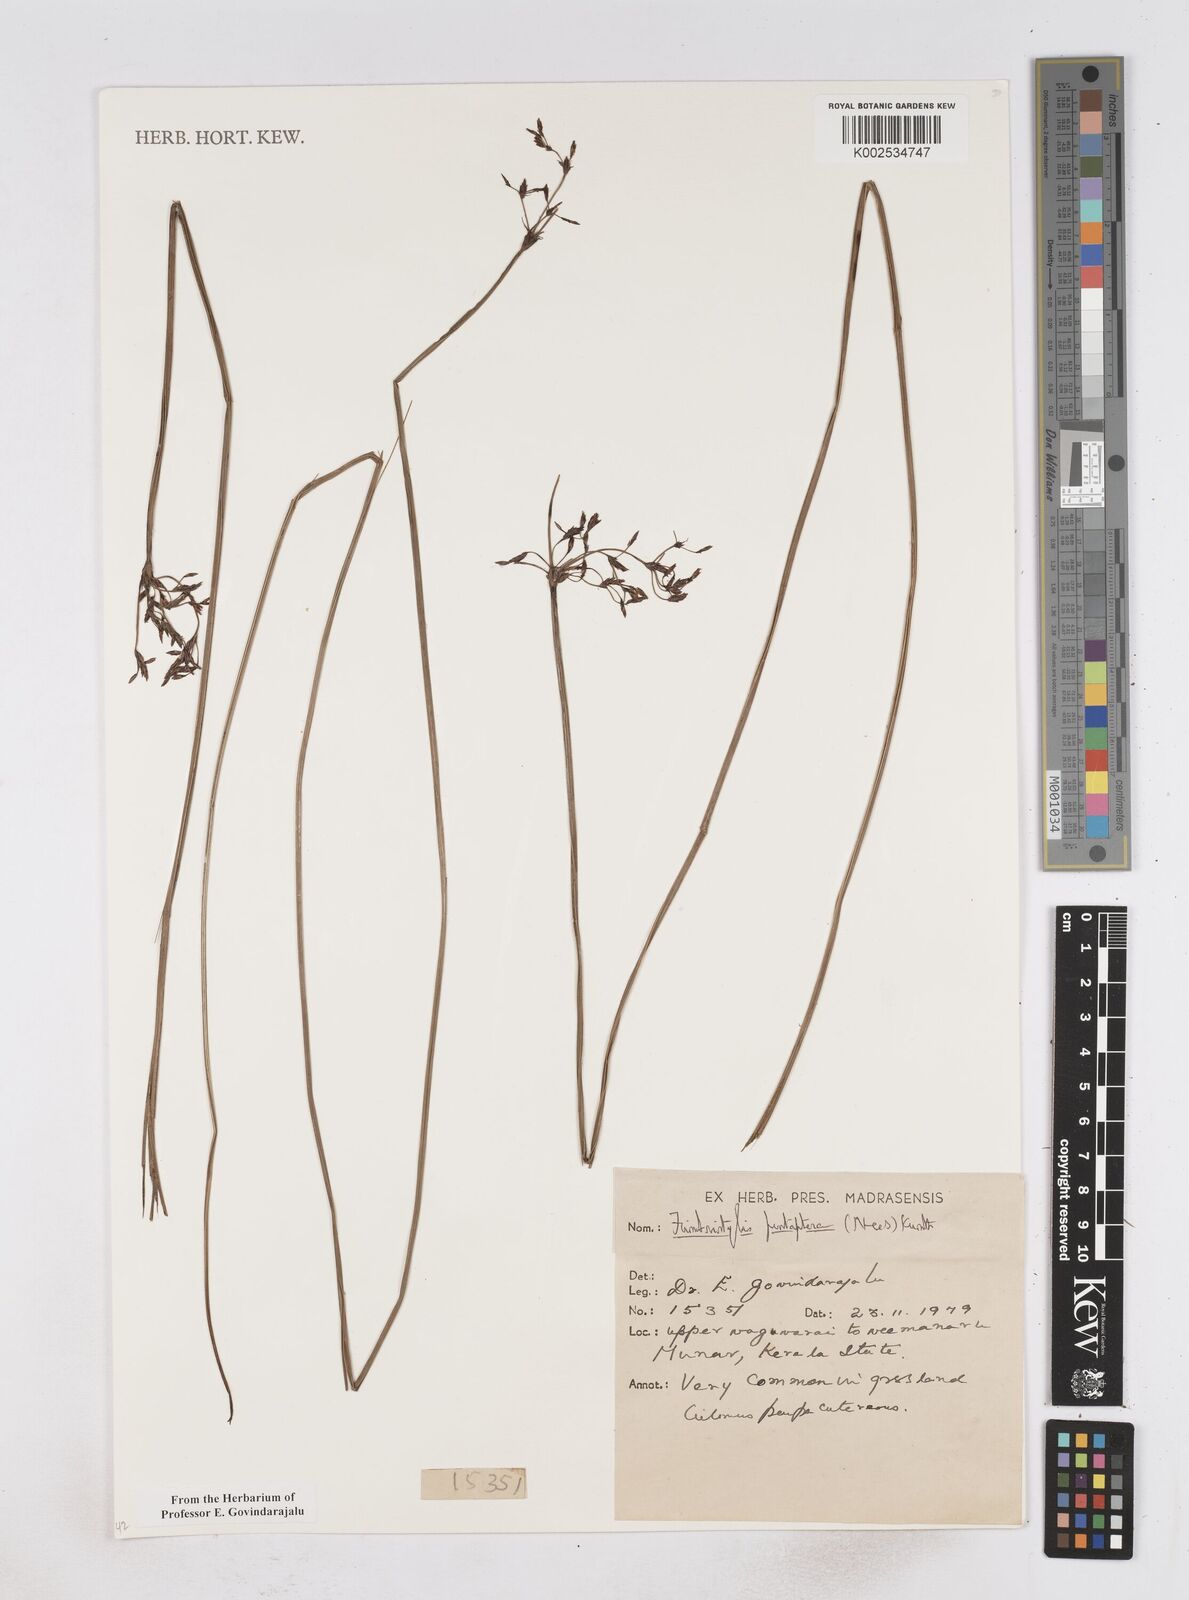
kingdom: Plantae
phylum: Tracheophyta
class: Liliopsida
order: Poales
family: Cyperaceae
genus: Fimbristylis
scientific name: Fimbristylis salbundia
